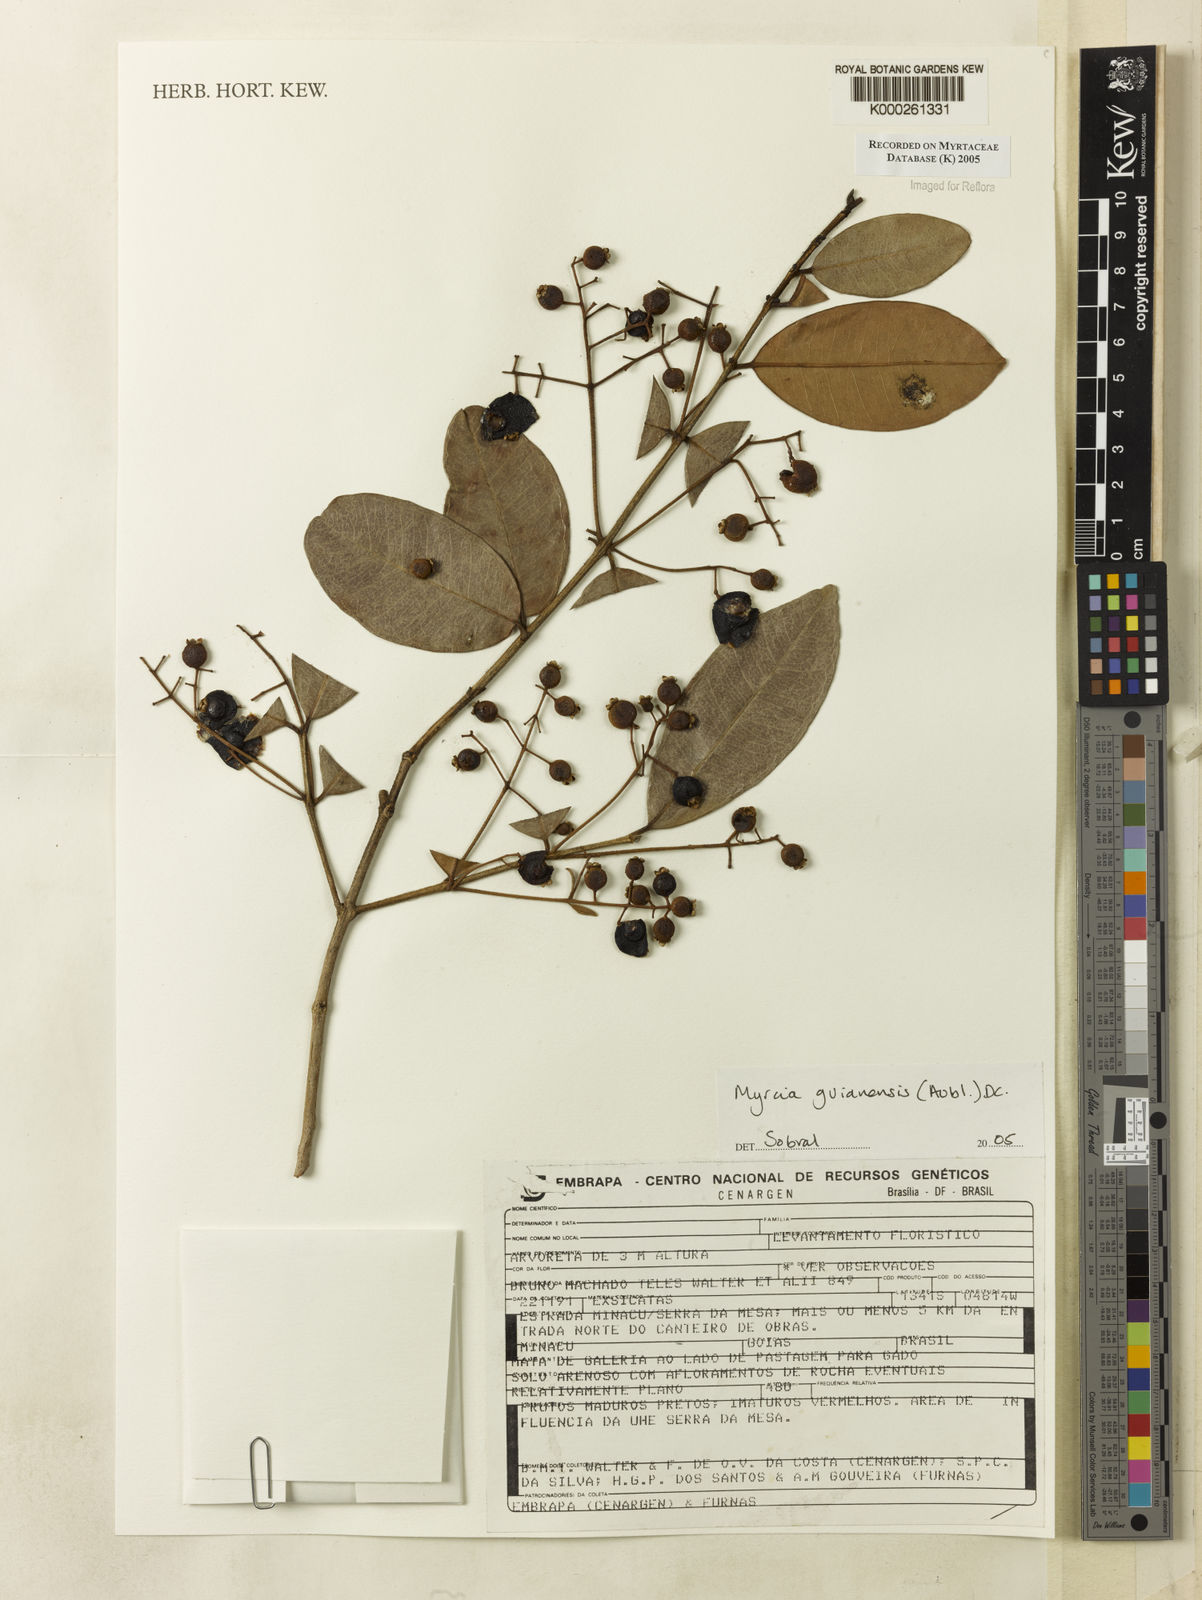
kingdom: Plantae
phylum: Tracheophyta
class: Magnoliopsida
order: Myrtales
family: Myrtaceae
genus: Myrcia
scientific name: Myrcia guianensis
